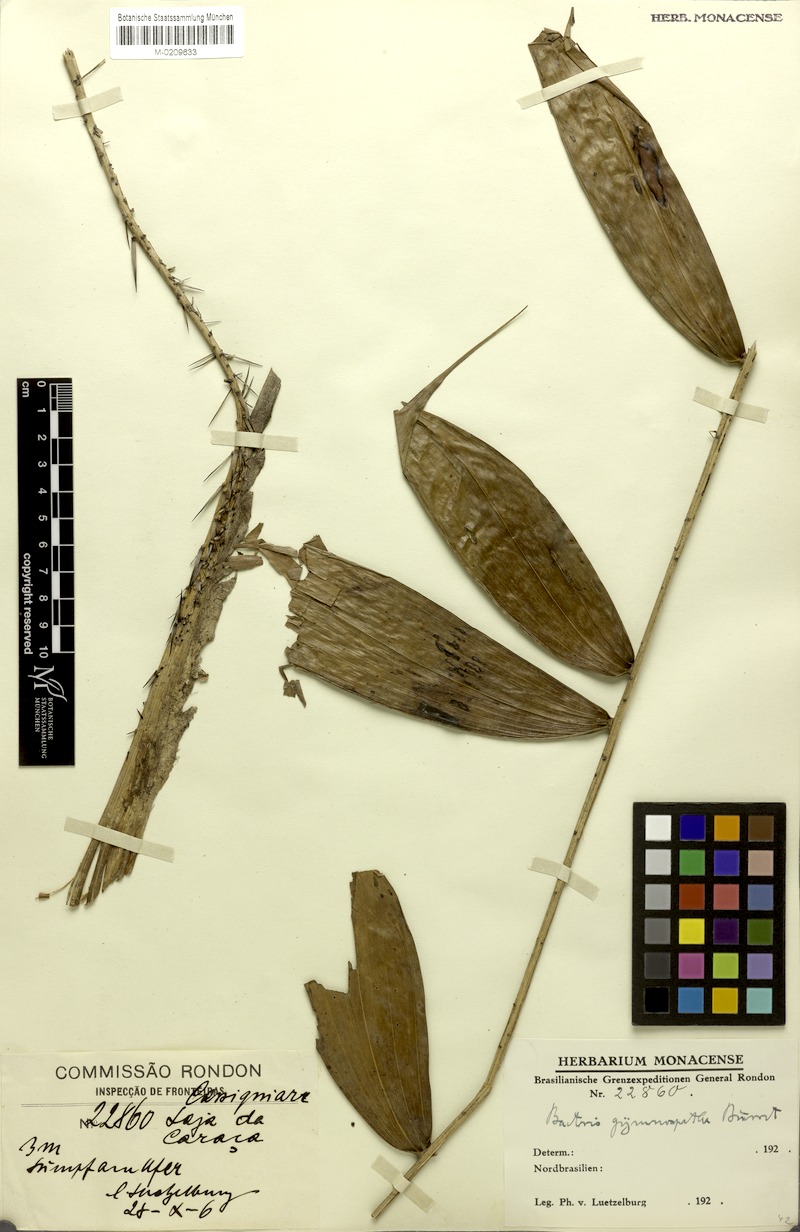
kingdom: Plantae
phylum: Tracheophyta
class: Liliopsida
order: Arecales
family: Arecaceae
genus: Bactris
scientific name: Bactris maraja
